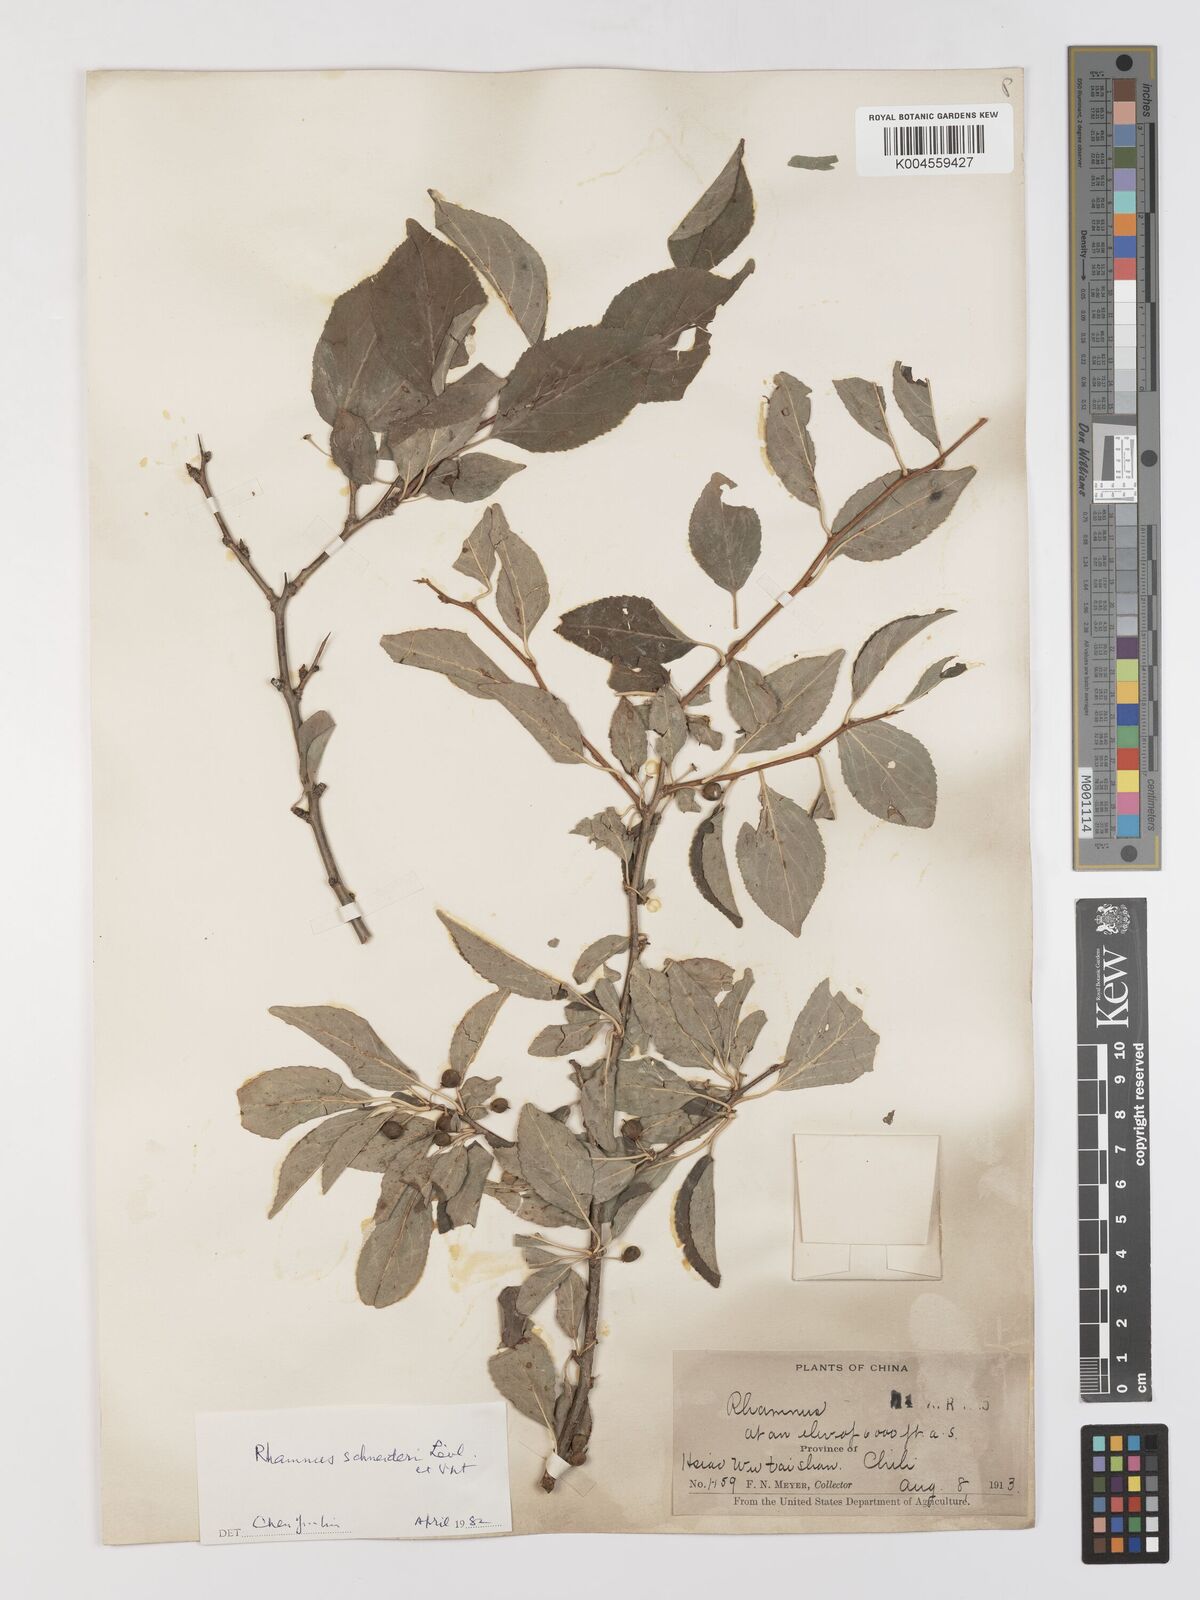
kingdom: Plantae
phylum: Tracheophyta
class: Magnoliopsida
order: Rosales
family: Rhamnaceae
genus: Rhamnus
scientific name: Rhamnus schneideri
